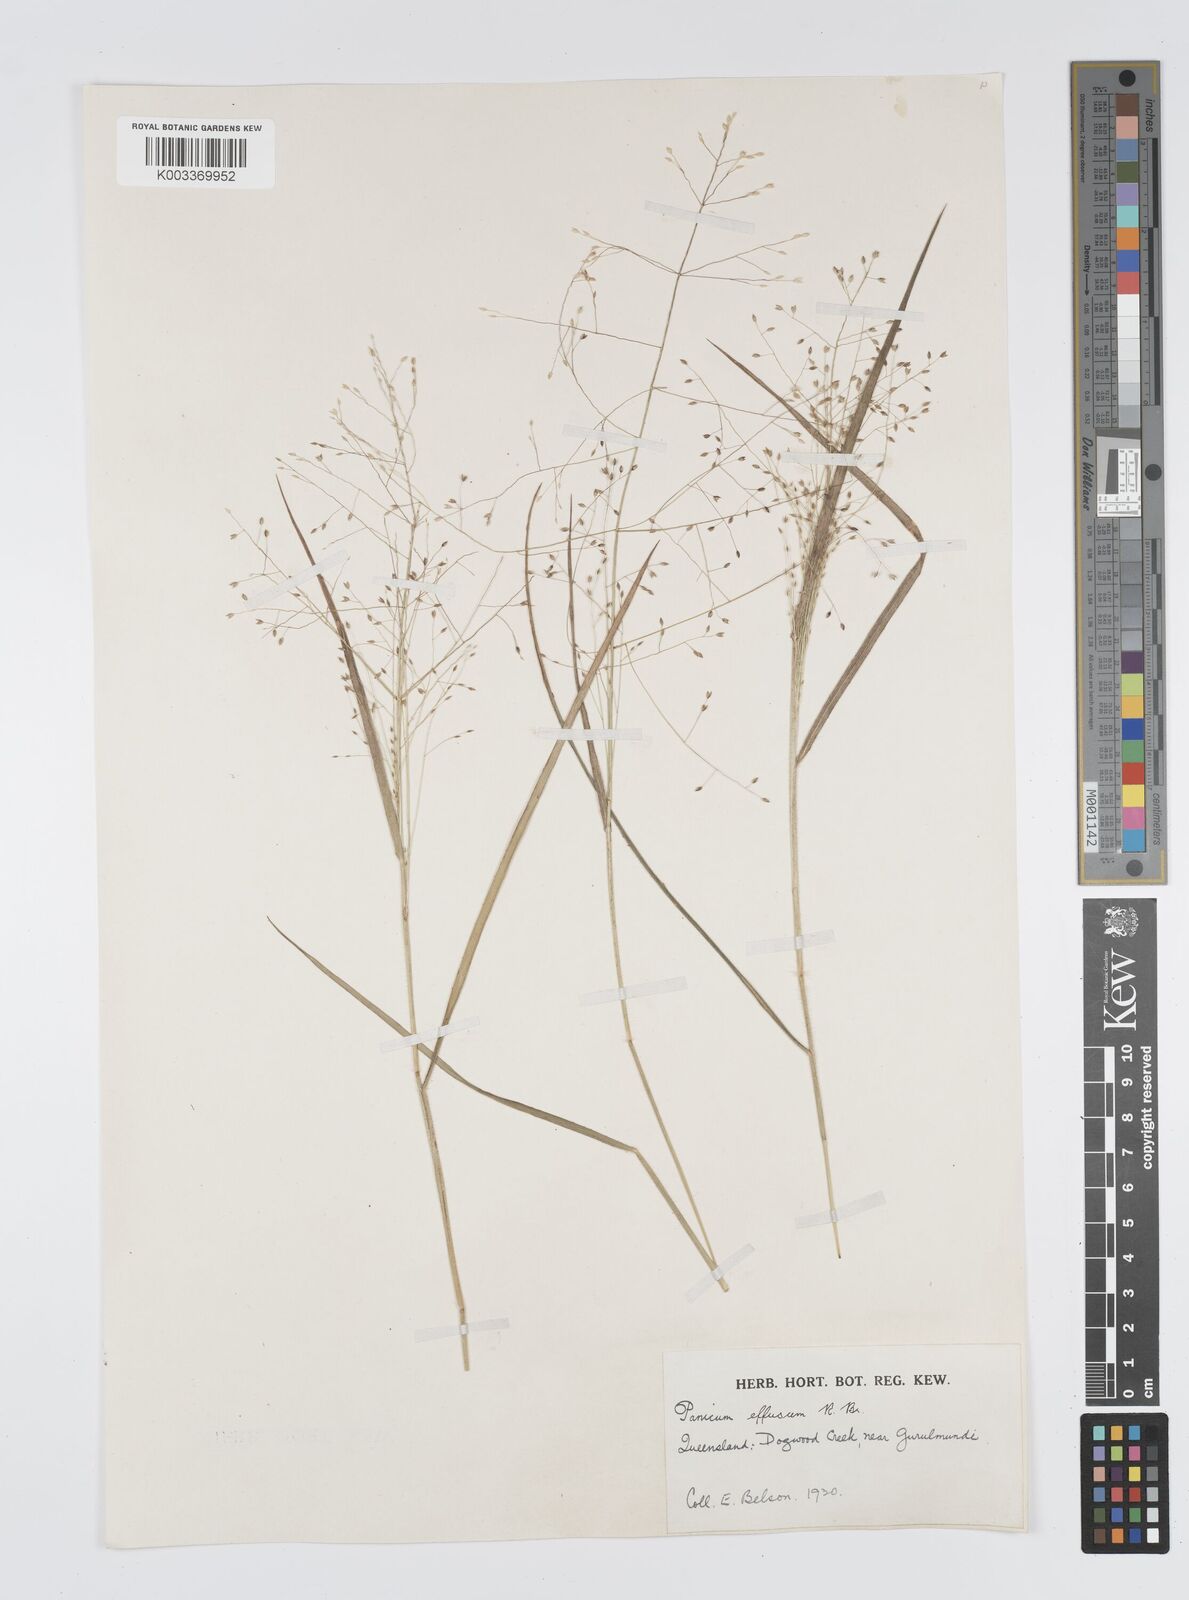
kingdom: Plantae
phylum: Tracheophyta
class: Liliopsida
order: Poales
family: Poaceae
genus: Panicum
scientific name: Panicum effusum
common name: Hairy panic grass
